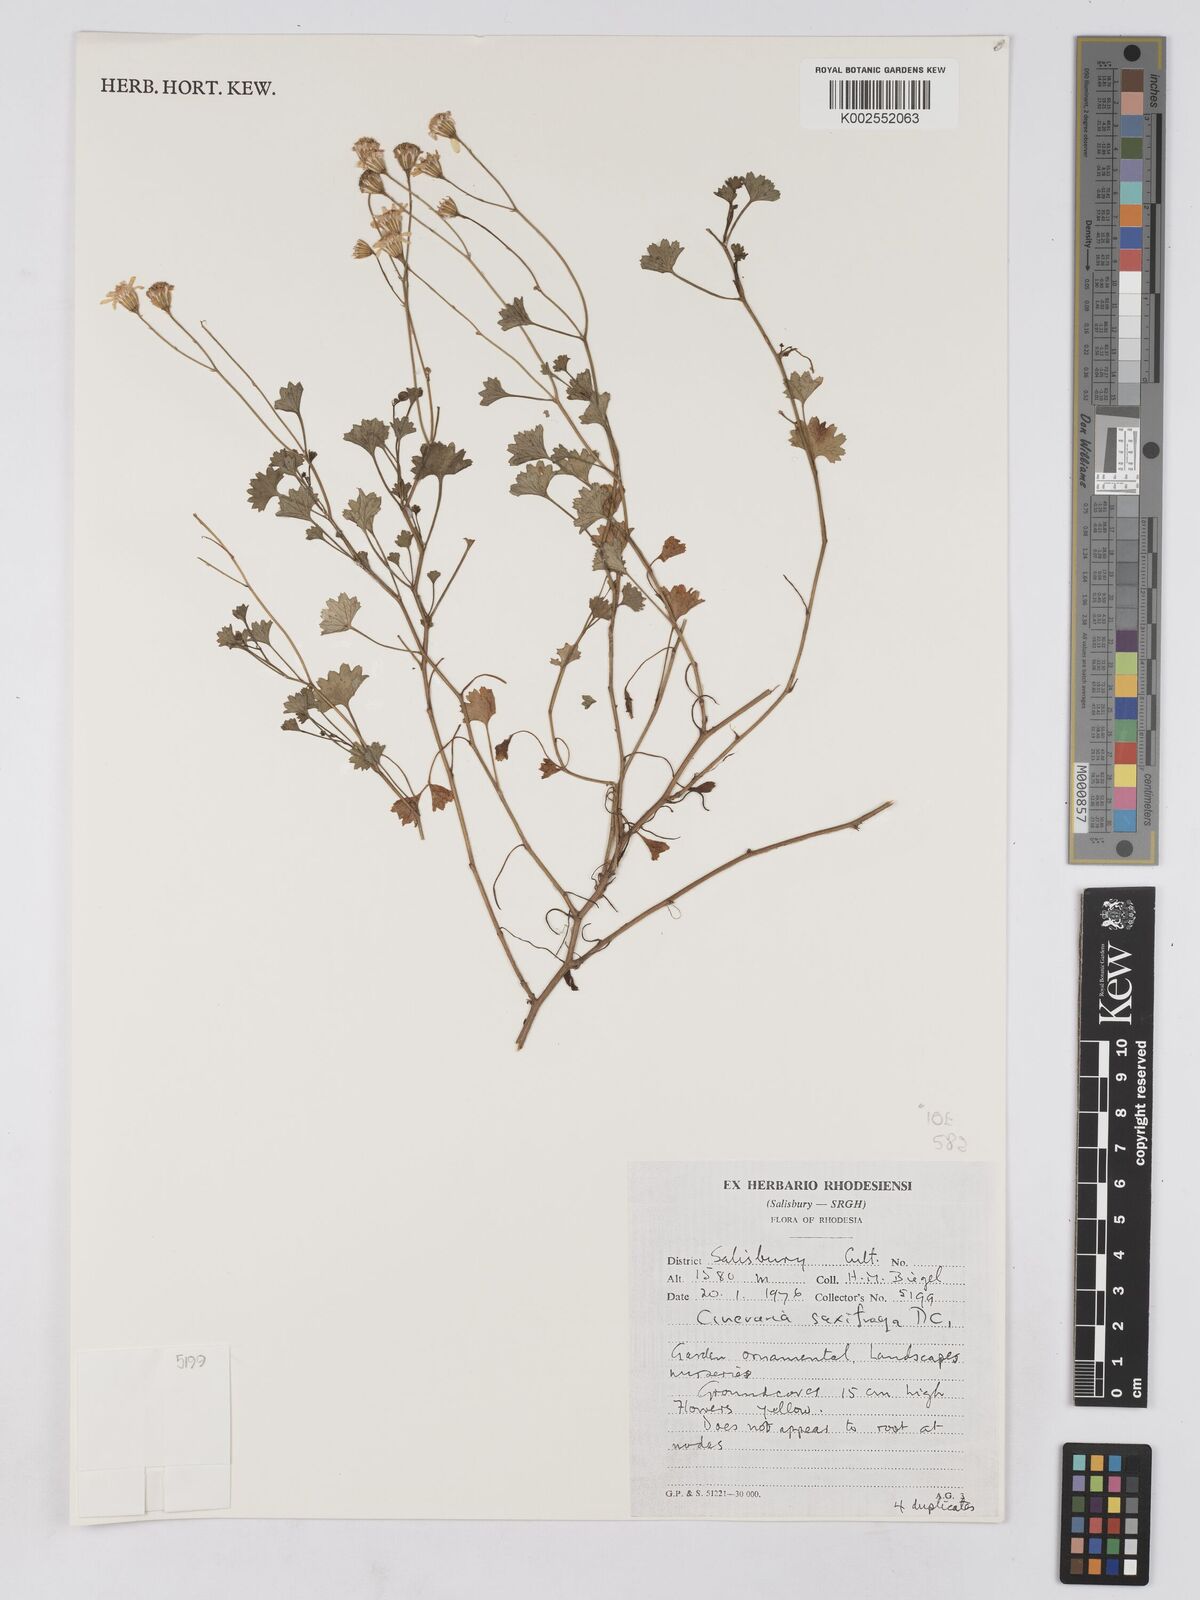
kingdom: Plantae
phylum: Tracheophyta
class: Magnoliopsida
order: Asterales
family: Asteraceae
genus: Cineraria
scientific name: Cineraria saxifraga
